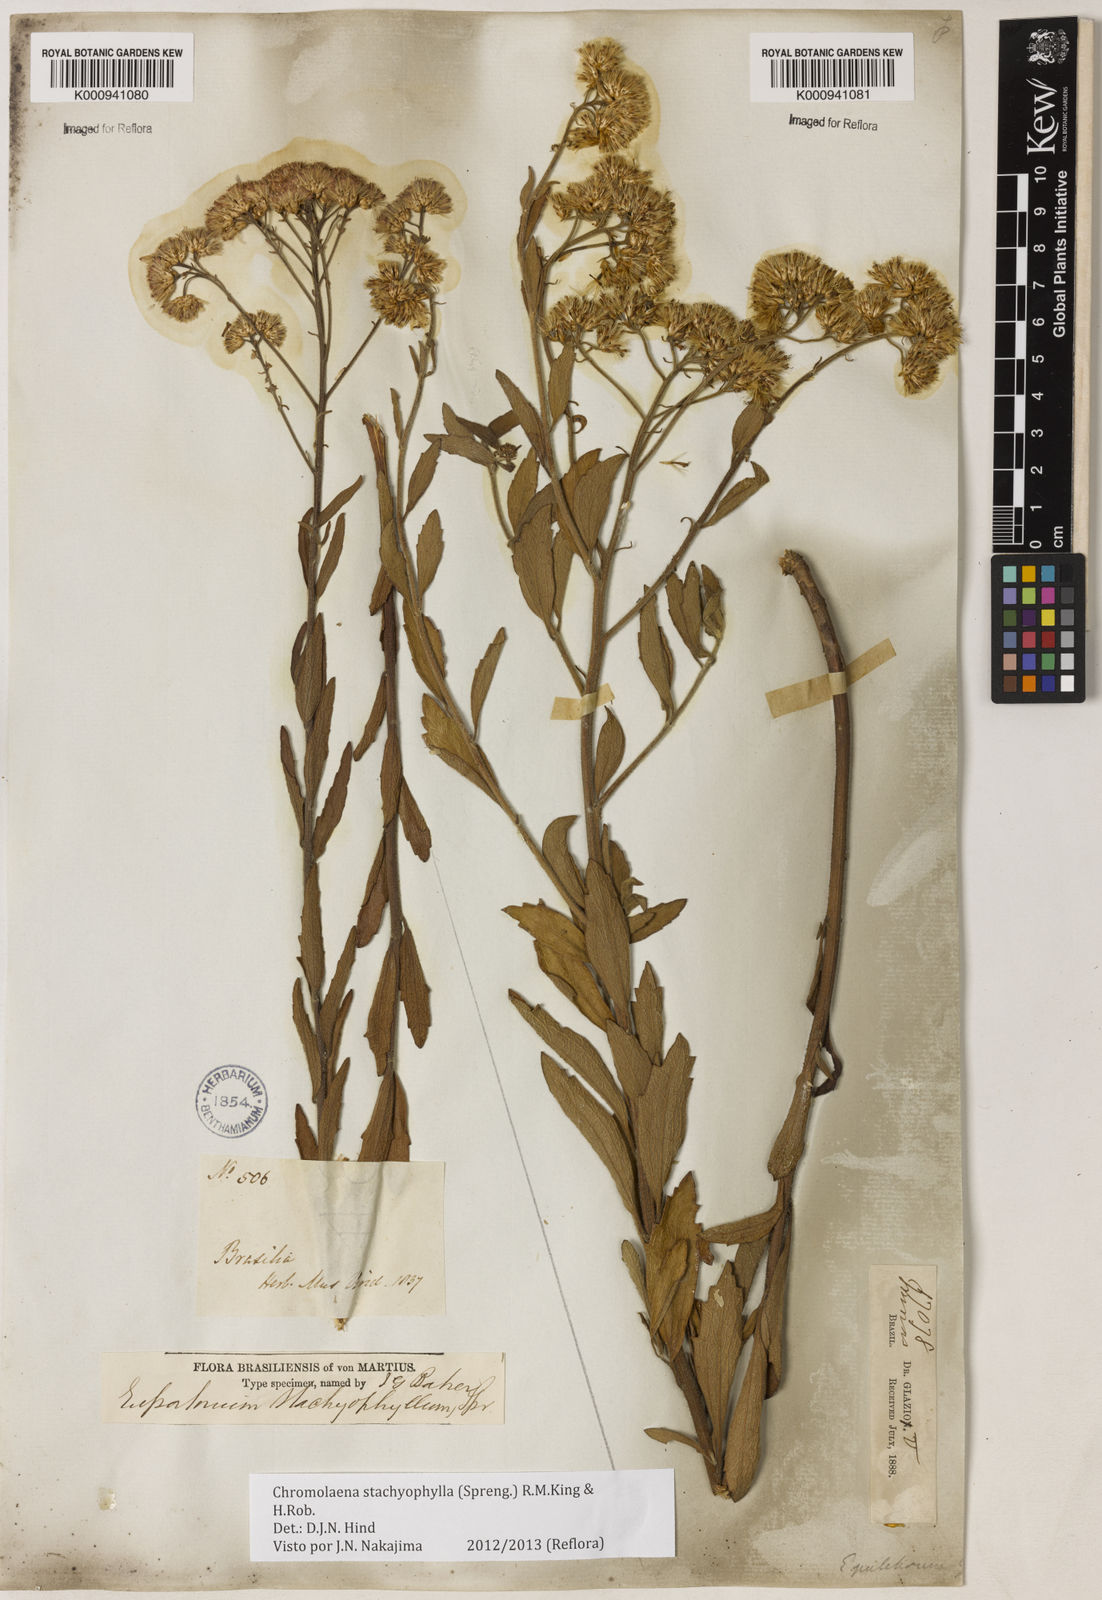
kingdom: Plantae
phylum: Tracheophyta
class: Magnoliopsida
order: Asterales
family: Asteraceae
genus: Chromolaena
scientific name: Chromolaena stachyophylla
